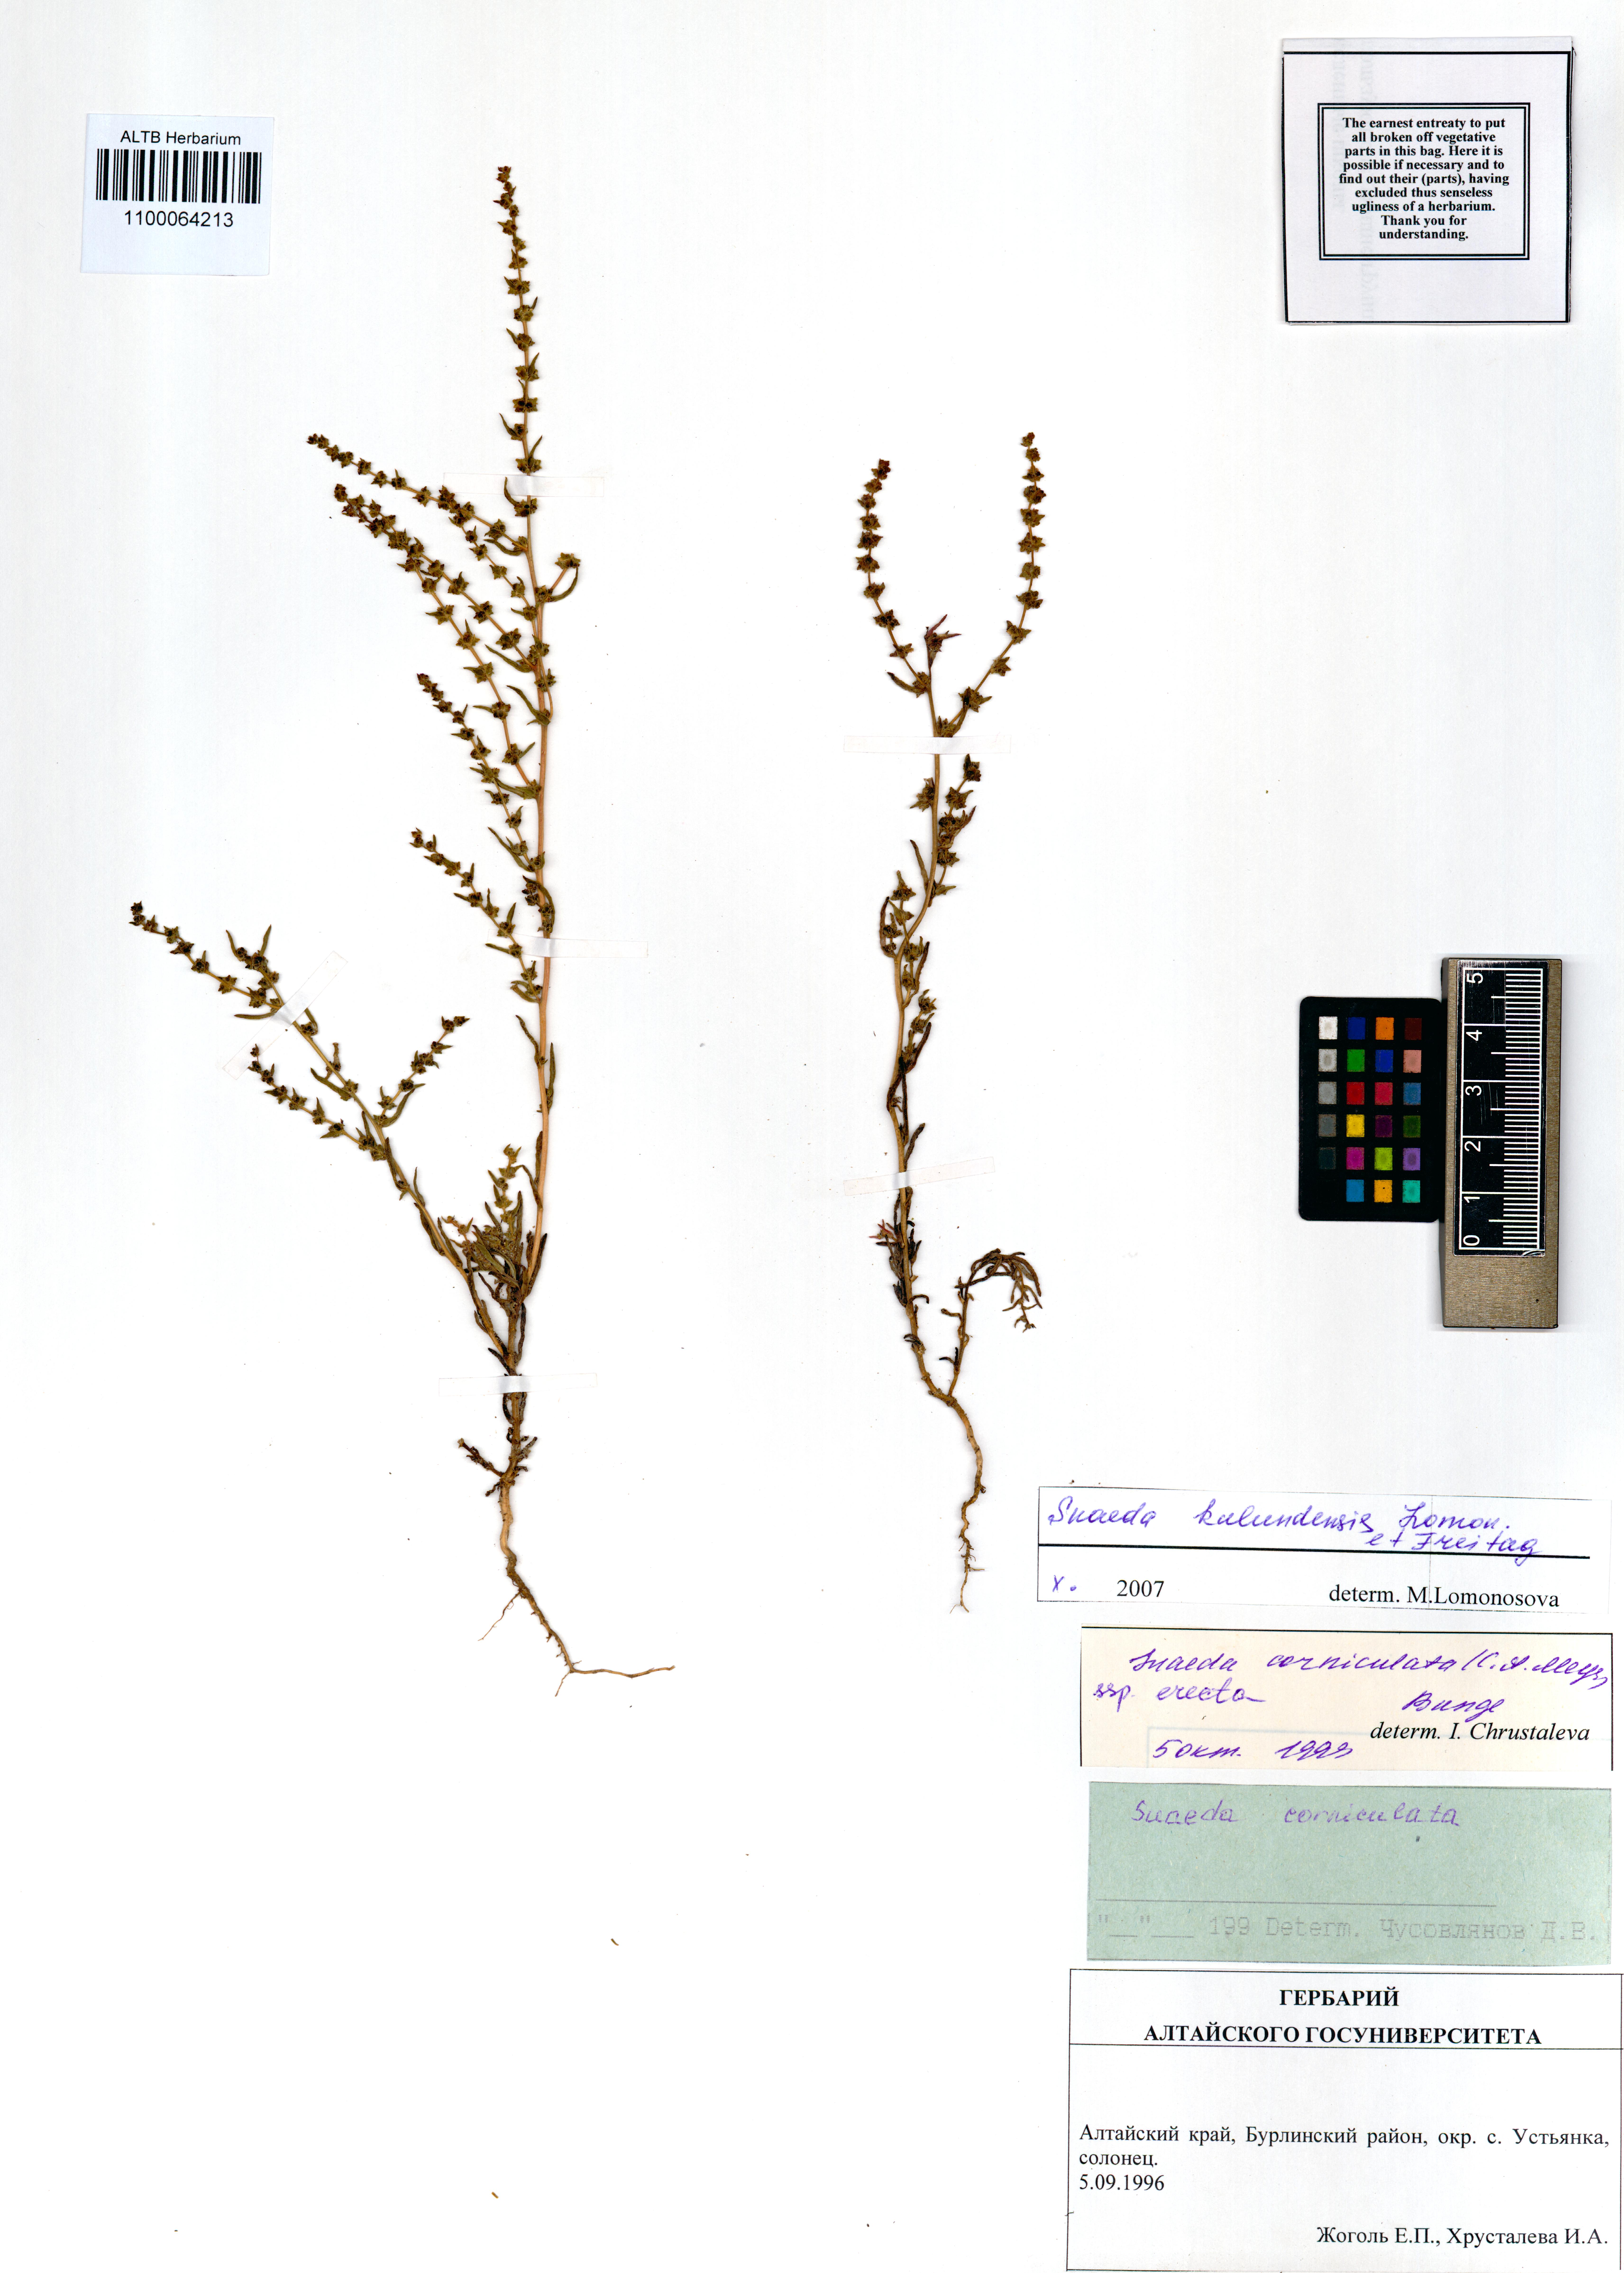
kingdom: Plantae
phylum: Tracheophyta
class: Magnoliopsida
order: Caryophyllales
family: Amaranthaceae
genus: Suaeda
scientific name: Suaeda kulundensis
